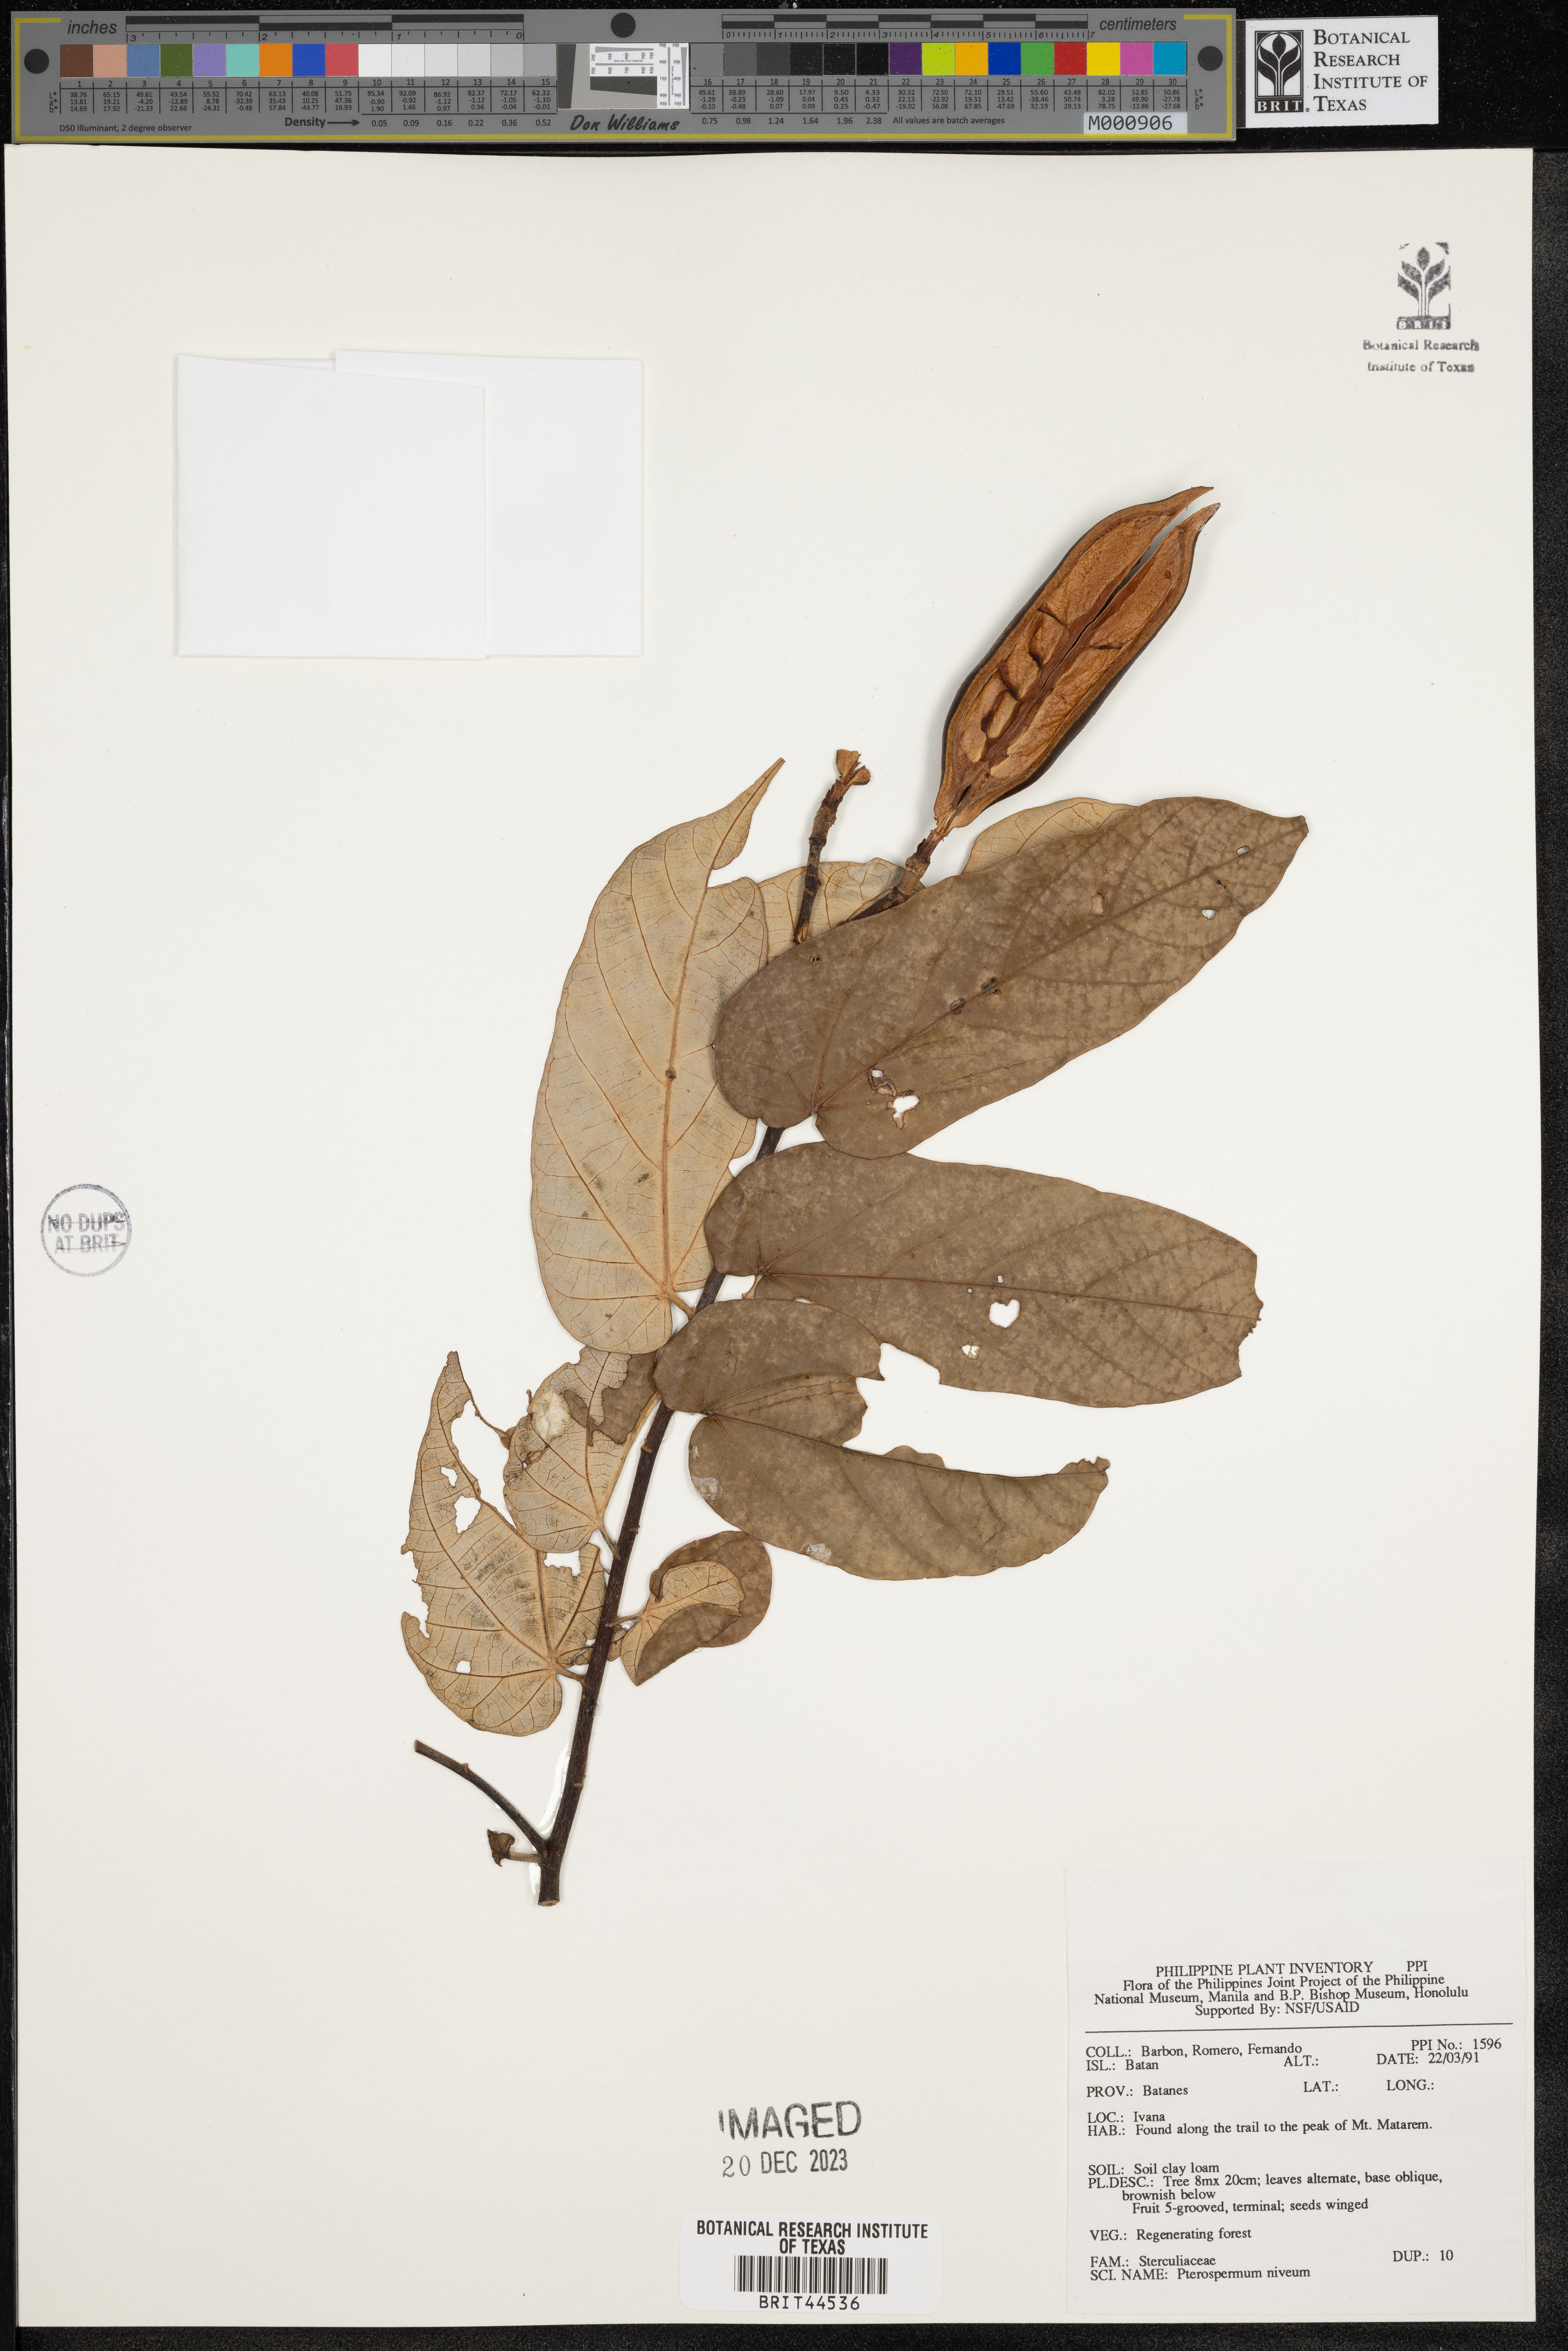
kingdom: Plantae
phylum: Tracheophyta
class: Magnoliopsida
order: Malvales
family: Malvaceae
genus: Pterospermum
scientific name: Pterospermum niveum
